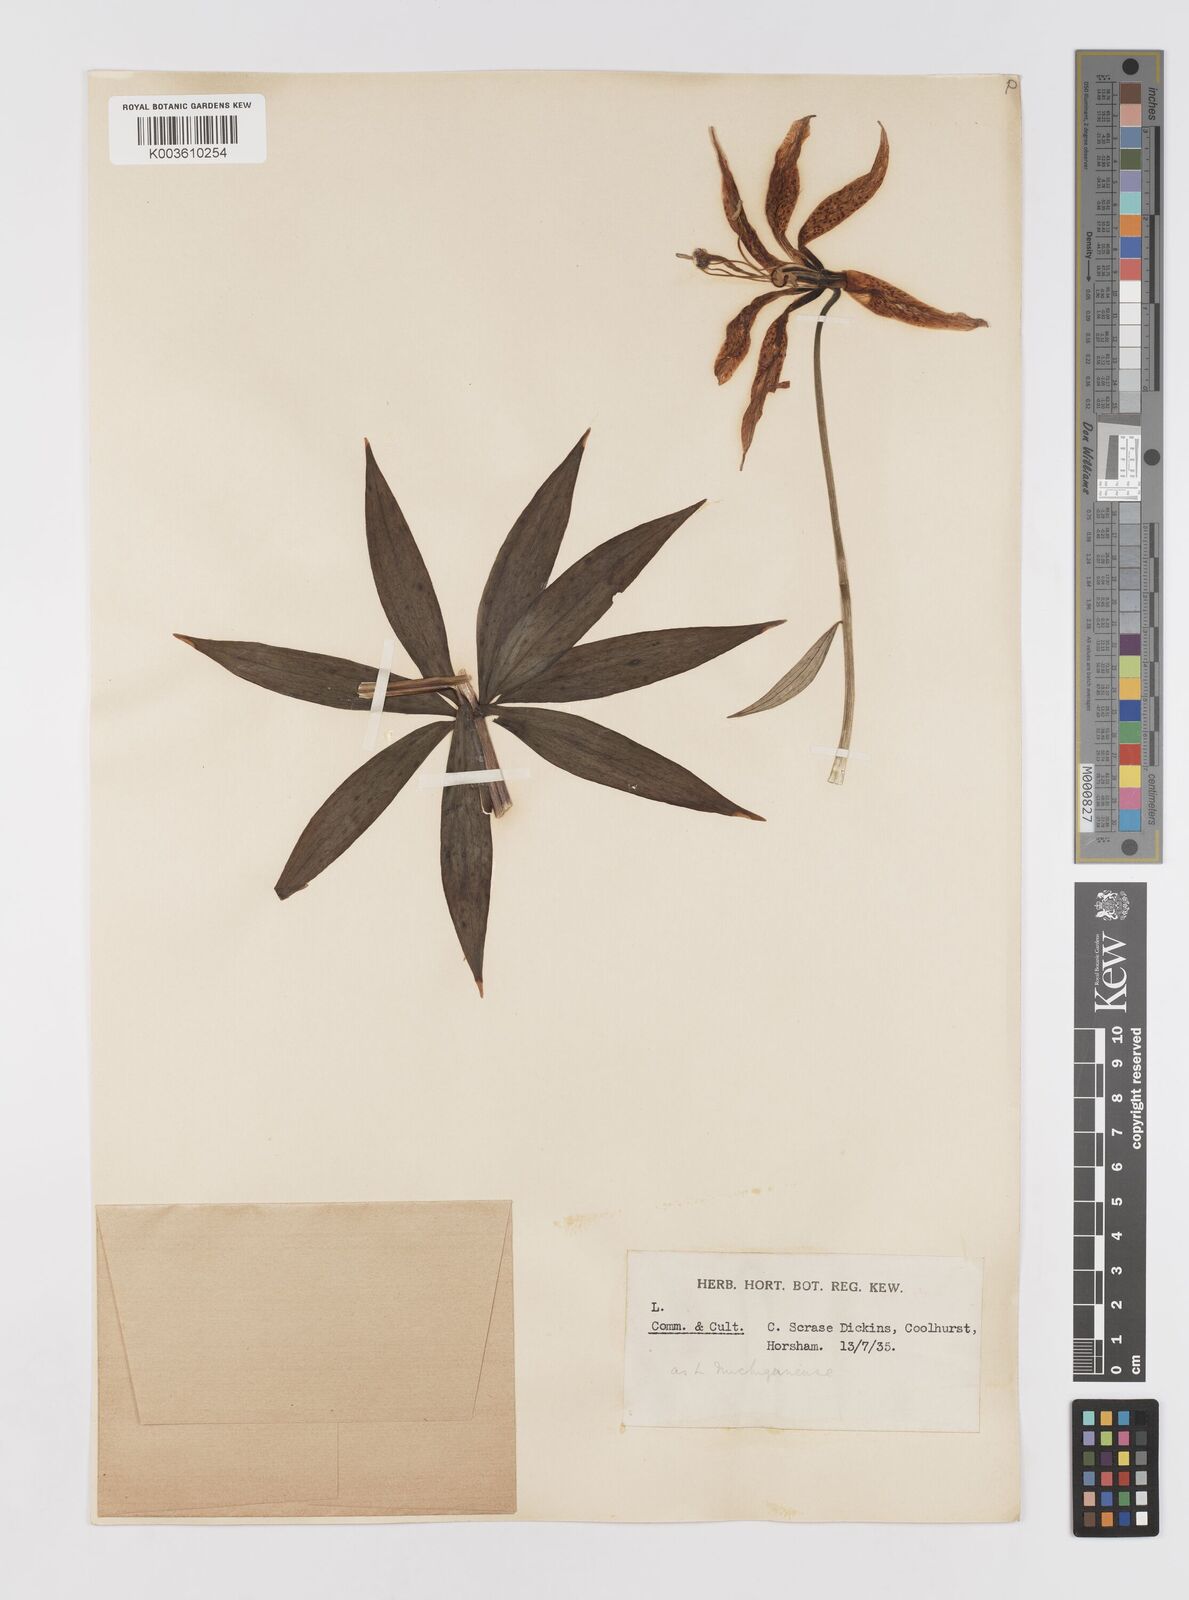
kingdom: Plantae
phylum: Tracheophyta
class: Liliopsida
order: Liliales
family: Liliaceae
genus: Lilium
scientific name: Lilium michiganense
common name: Michigan lily
